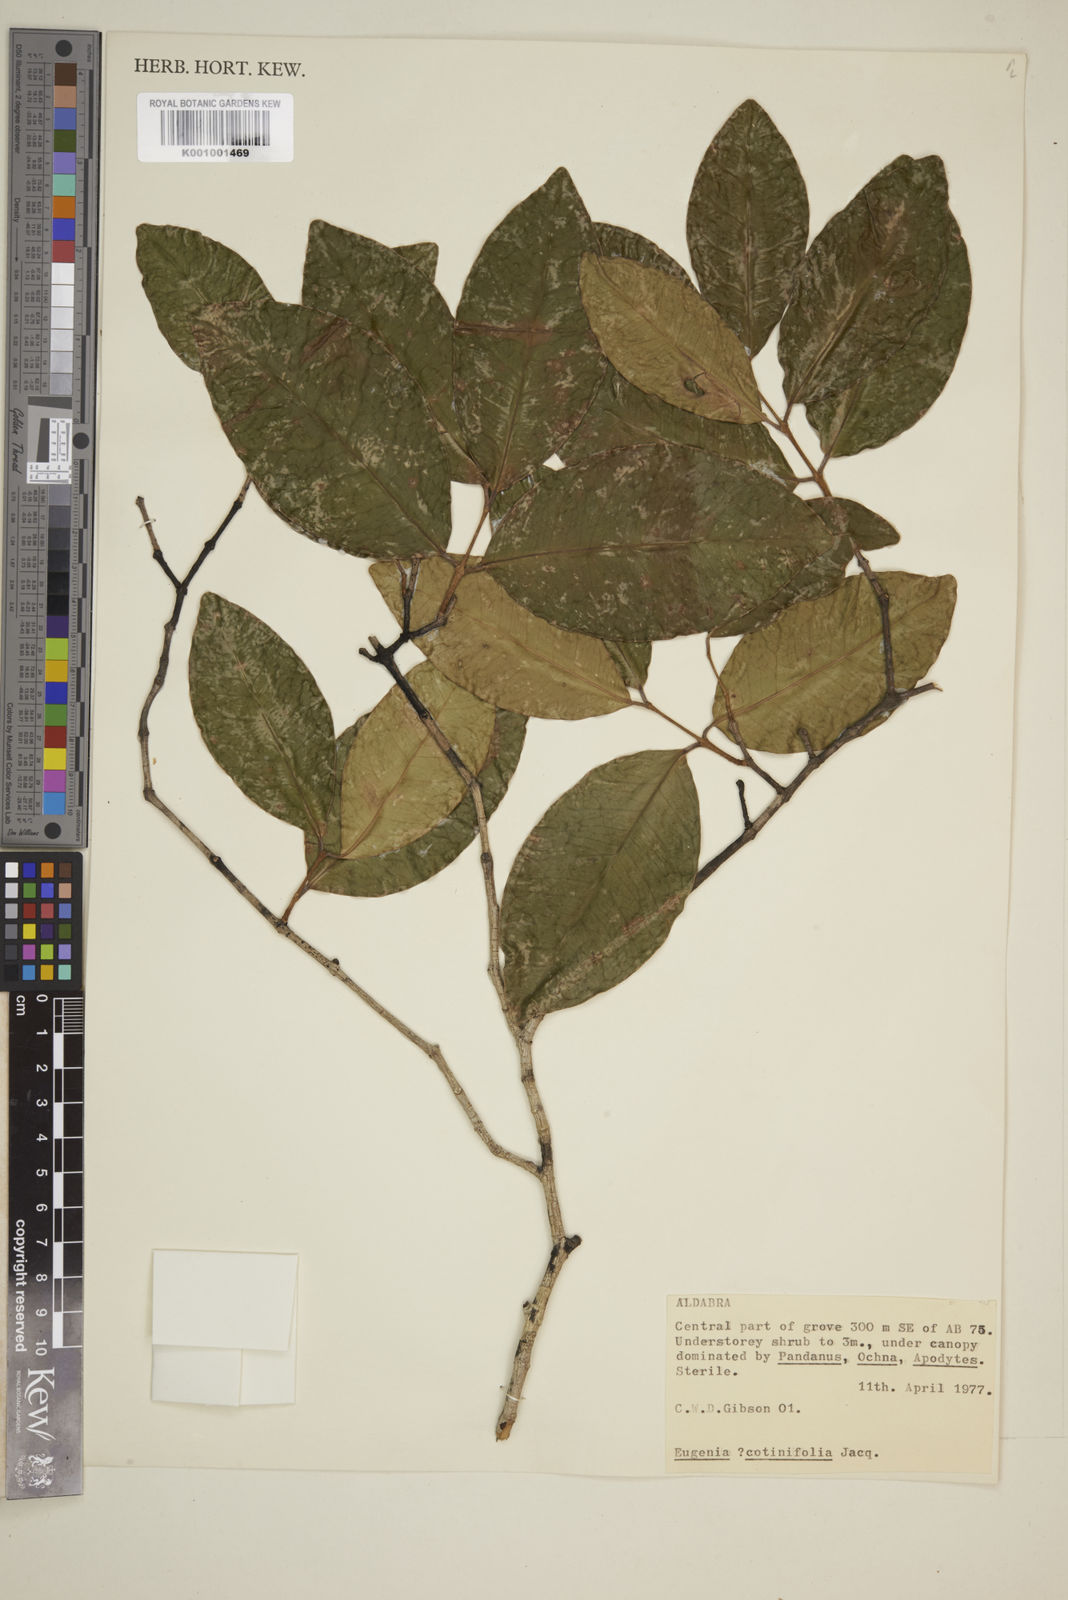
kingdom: Plantae
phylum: Tracheophyta
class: Magnoliopsida
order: Myrtales
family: Myrtaceae
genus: Eugenia
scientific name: Eugenia levinervis
